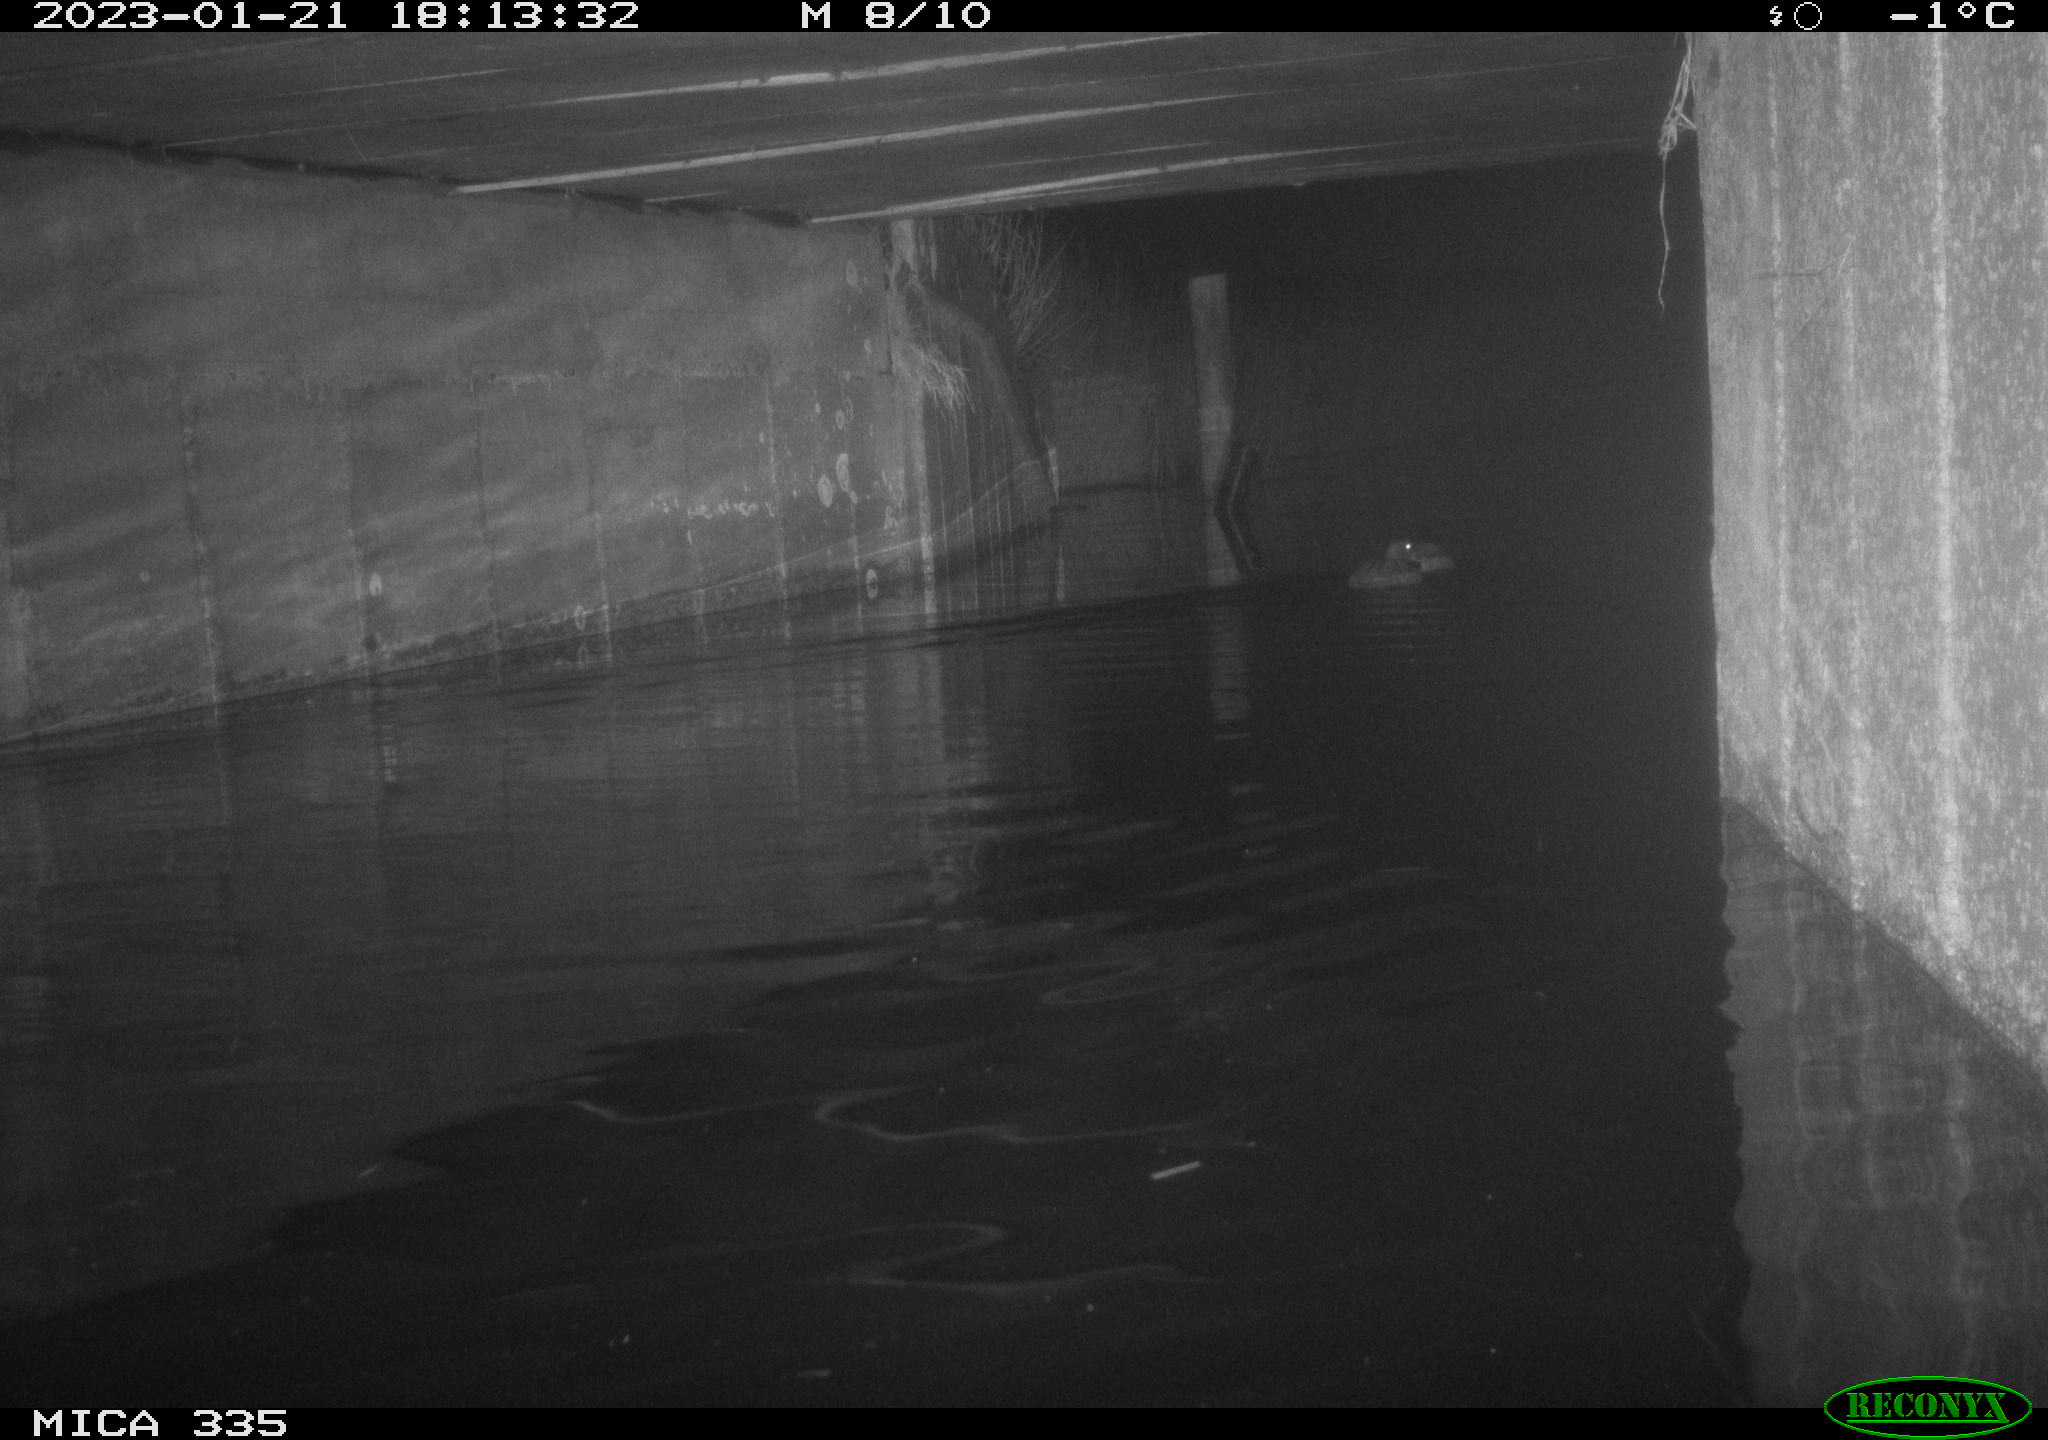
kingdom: Animalia
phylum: Chordata
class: Aves
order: Anseriformes
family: Anatidae
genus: Anas
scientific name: Anas
